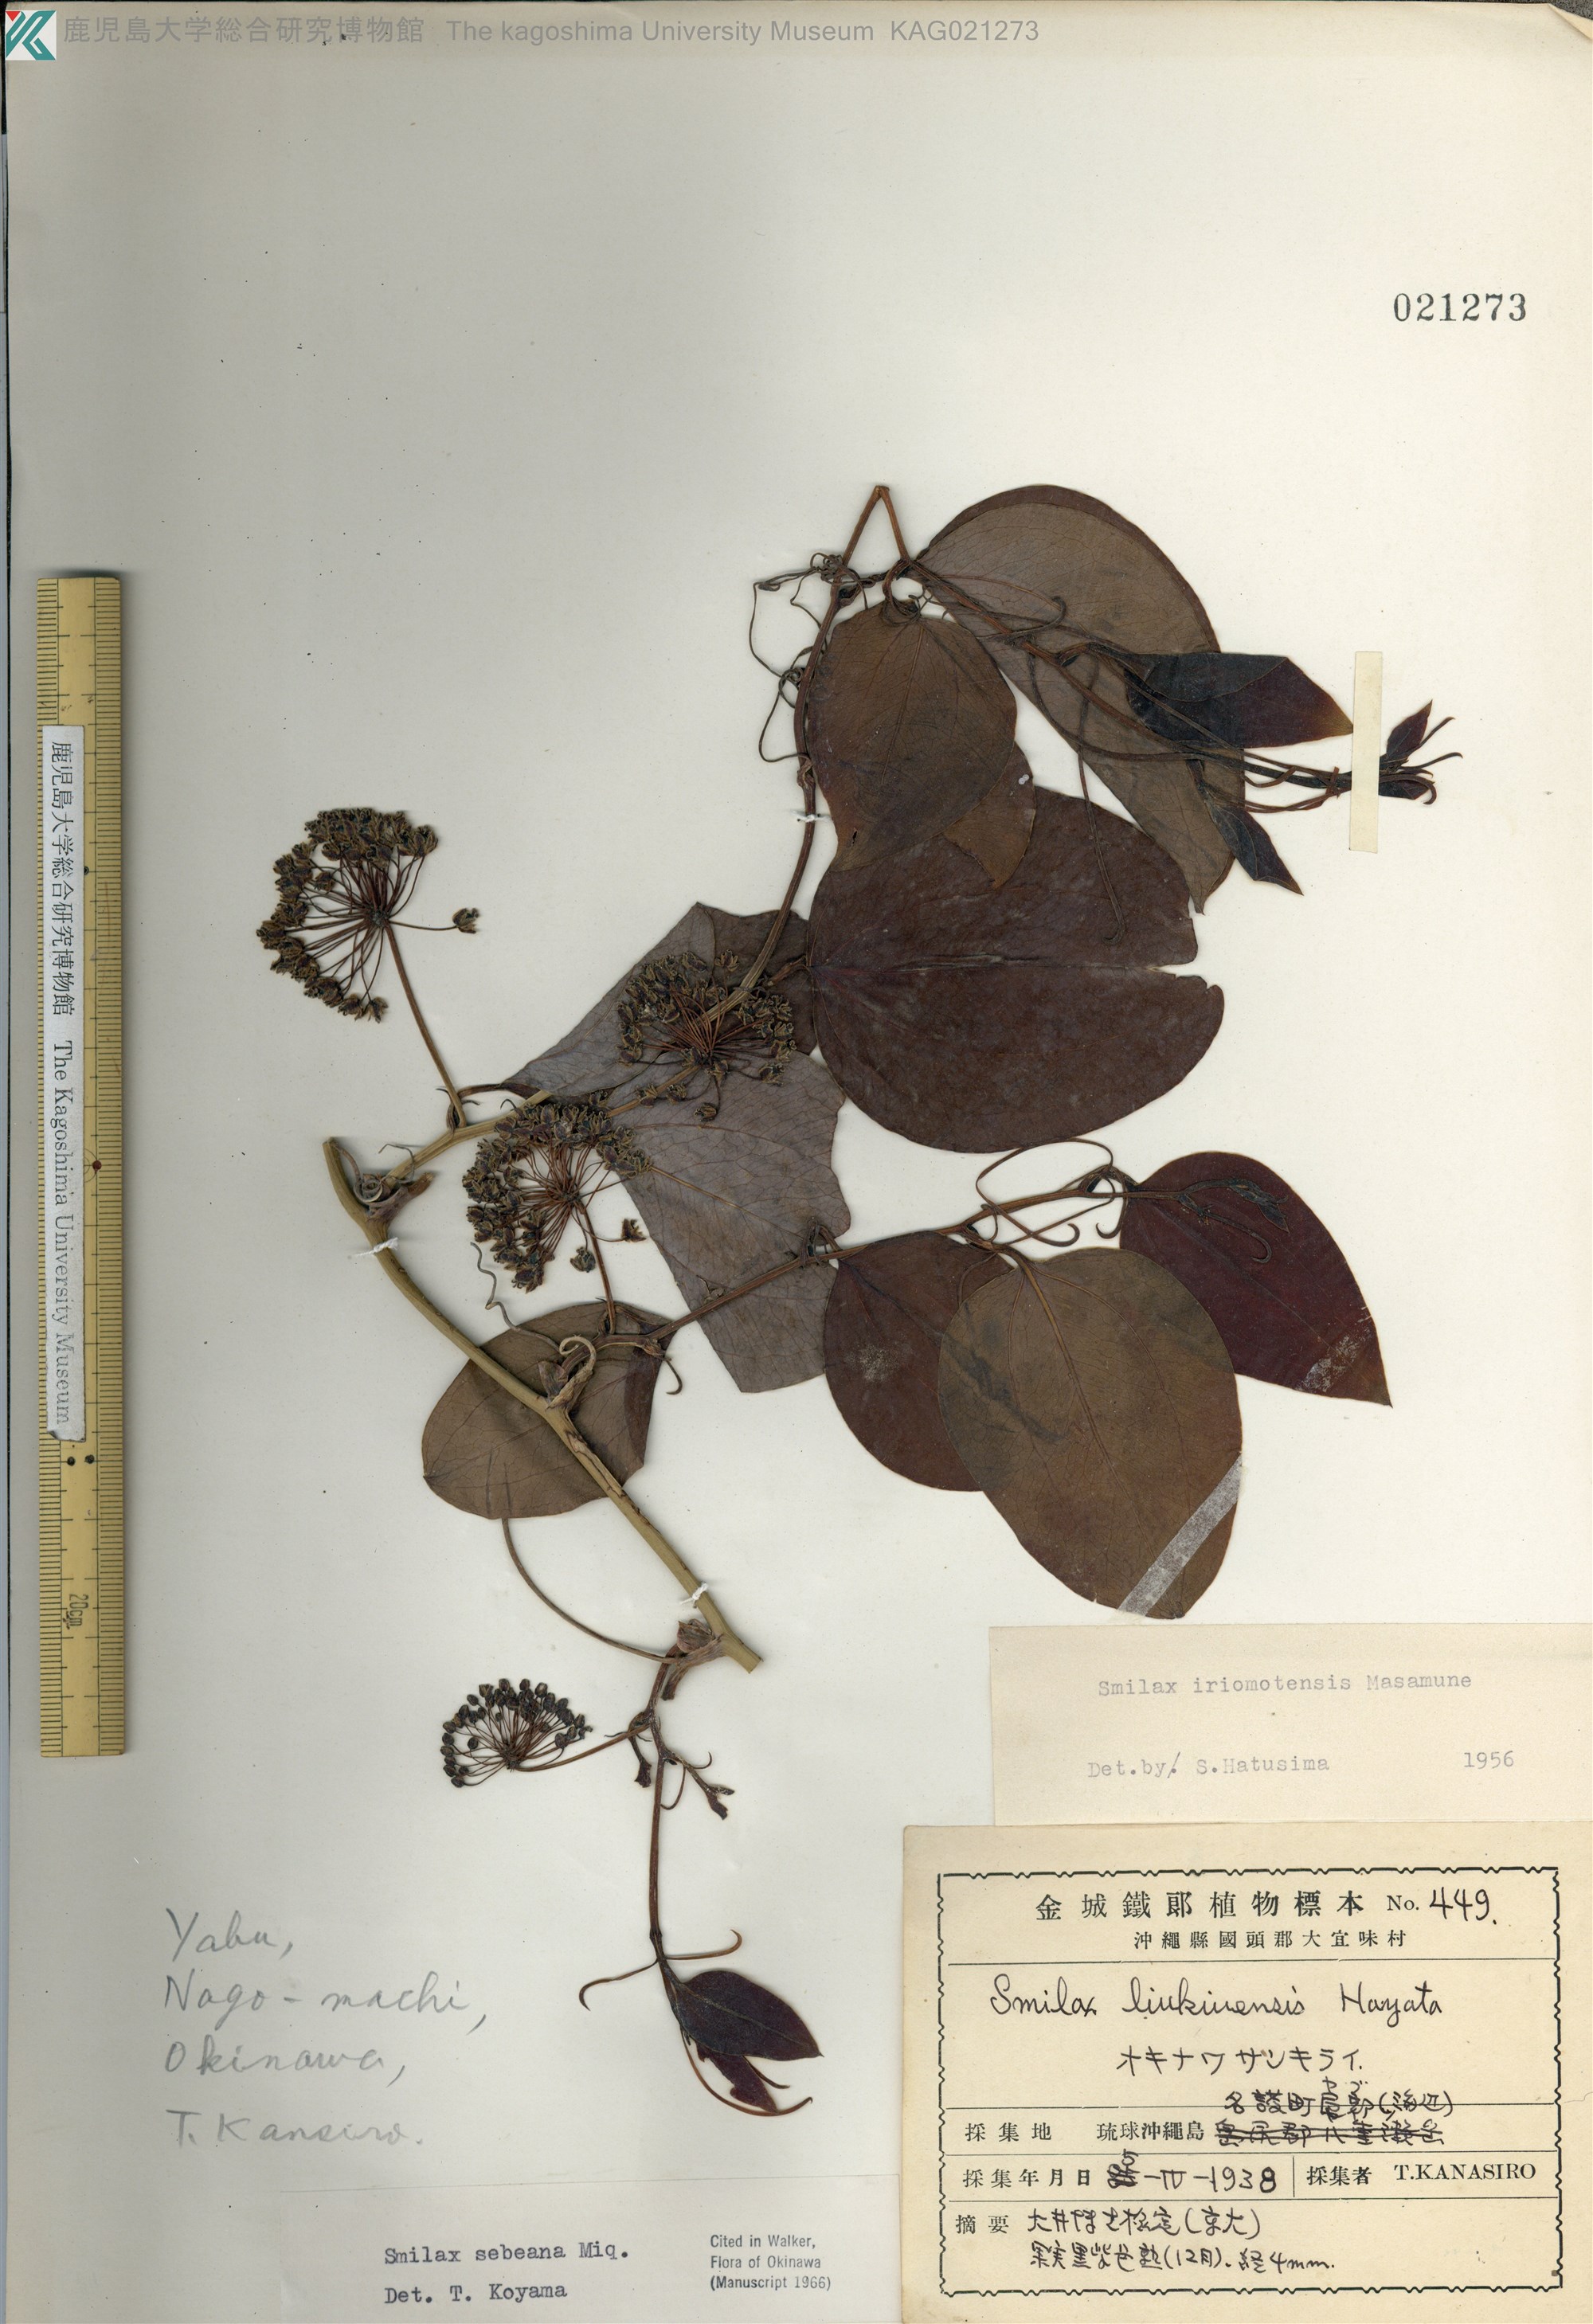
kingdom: Plantae
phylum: Tracheophyta
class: Liliopsida
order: Liliales
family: Smilacaceae
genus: Smilax
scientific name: Smilax sebeana
